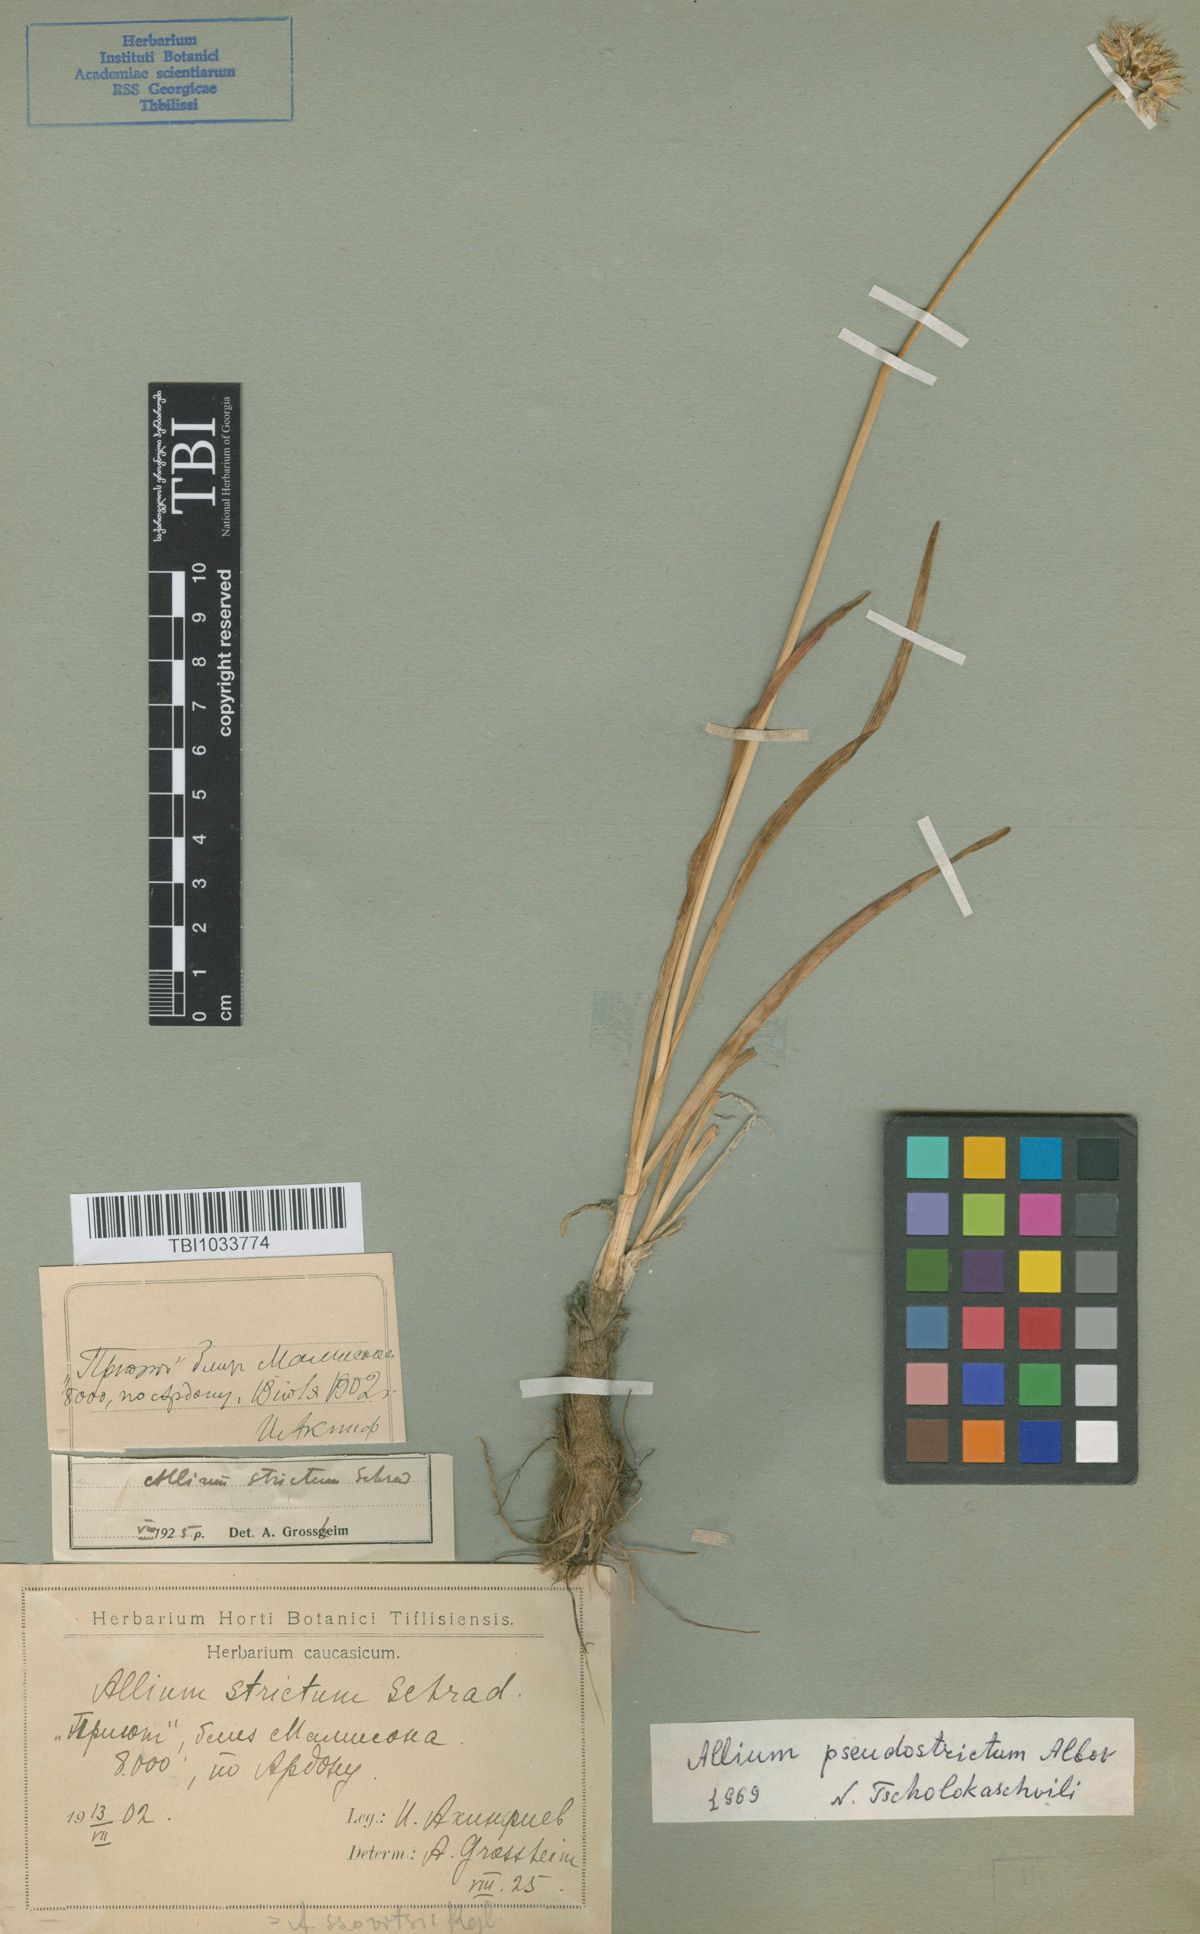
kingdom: Plantae
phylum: Tracheophyta
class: Liliopsida
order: Asparagales
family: Amaryllidaceae
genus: Allium
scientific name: Allium pseudostrictum
